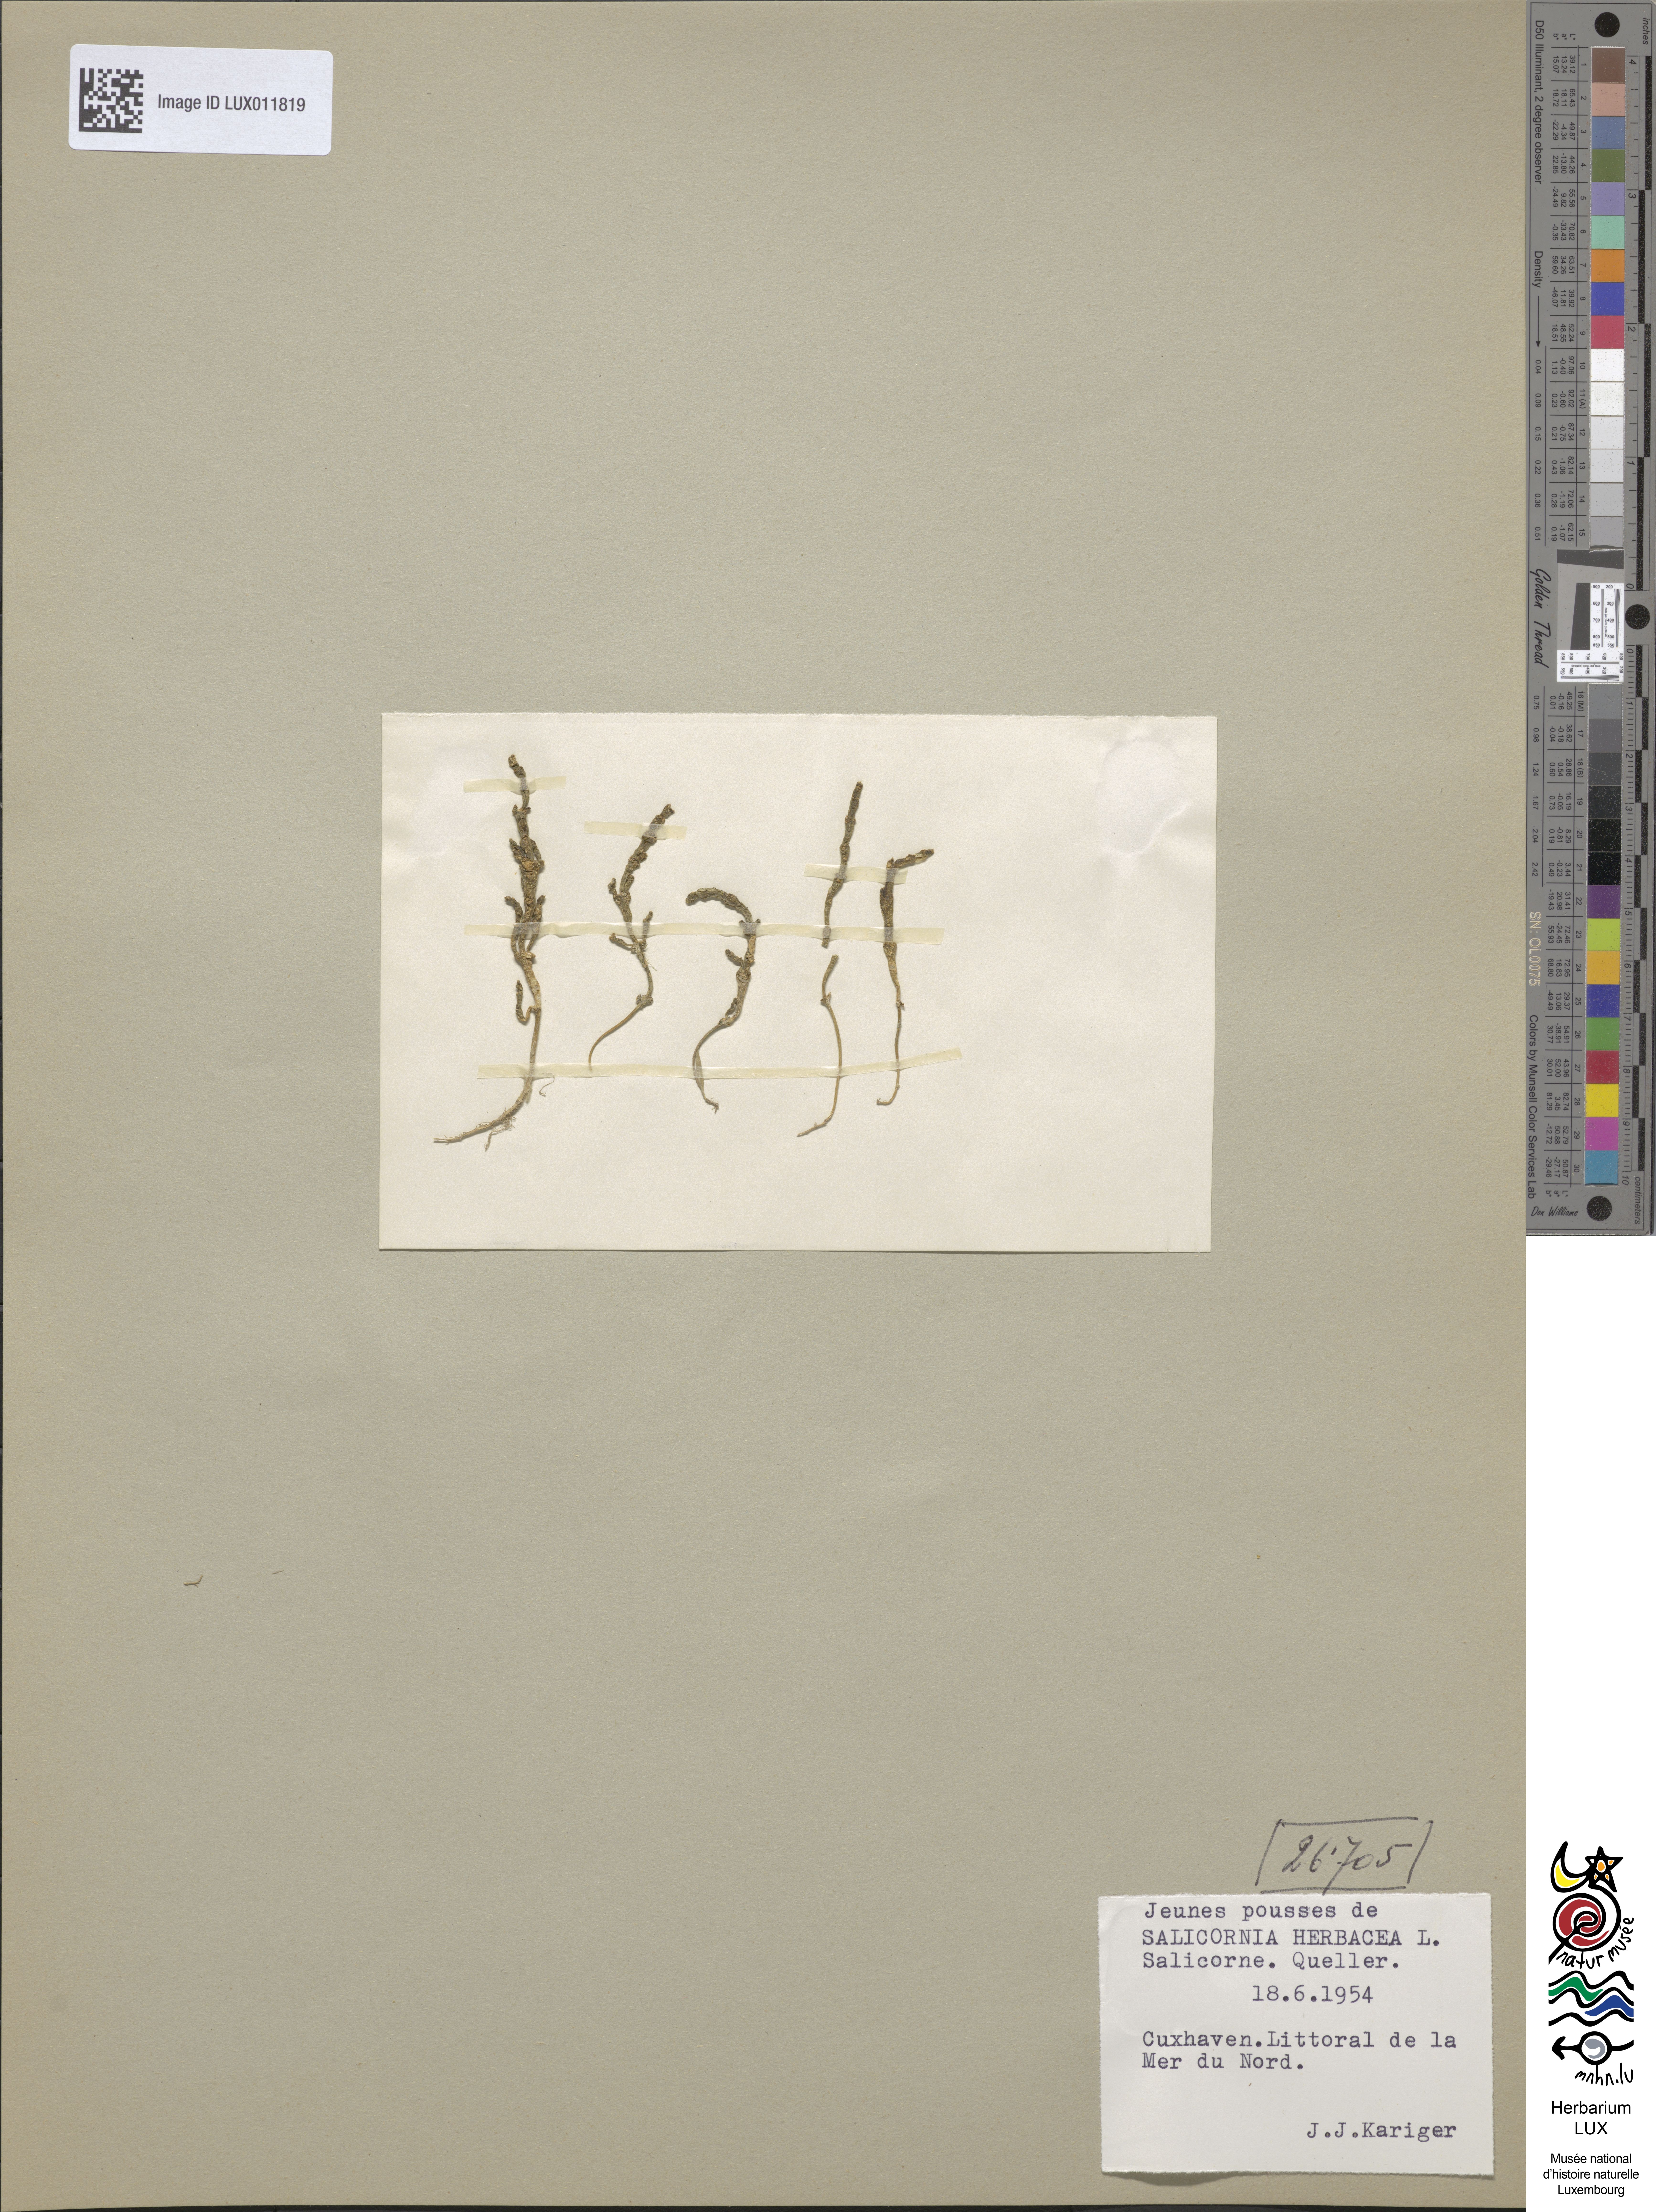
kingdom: Plantae
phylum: Tracheophyta
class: Magnoliopsida
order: Caryophyllales
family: Amaranthaceae
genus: Salicornia
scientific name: Salicornia europaea
